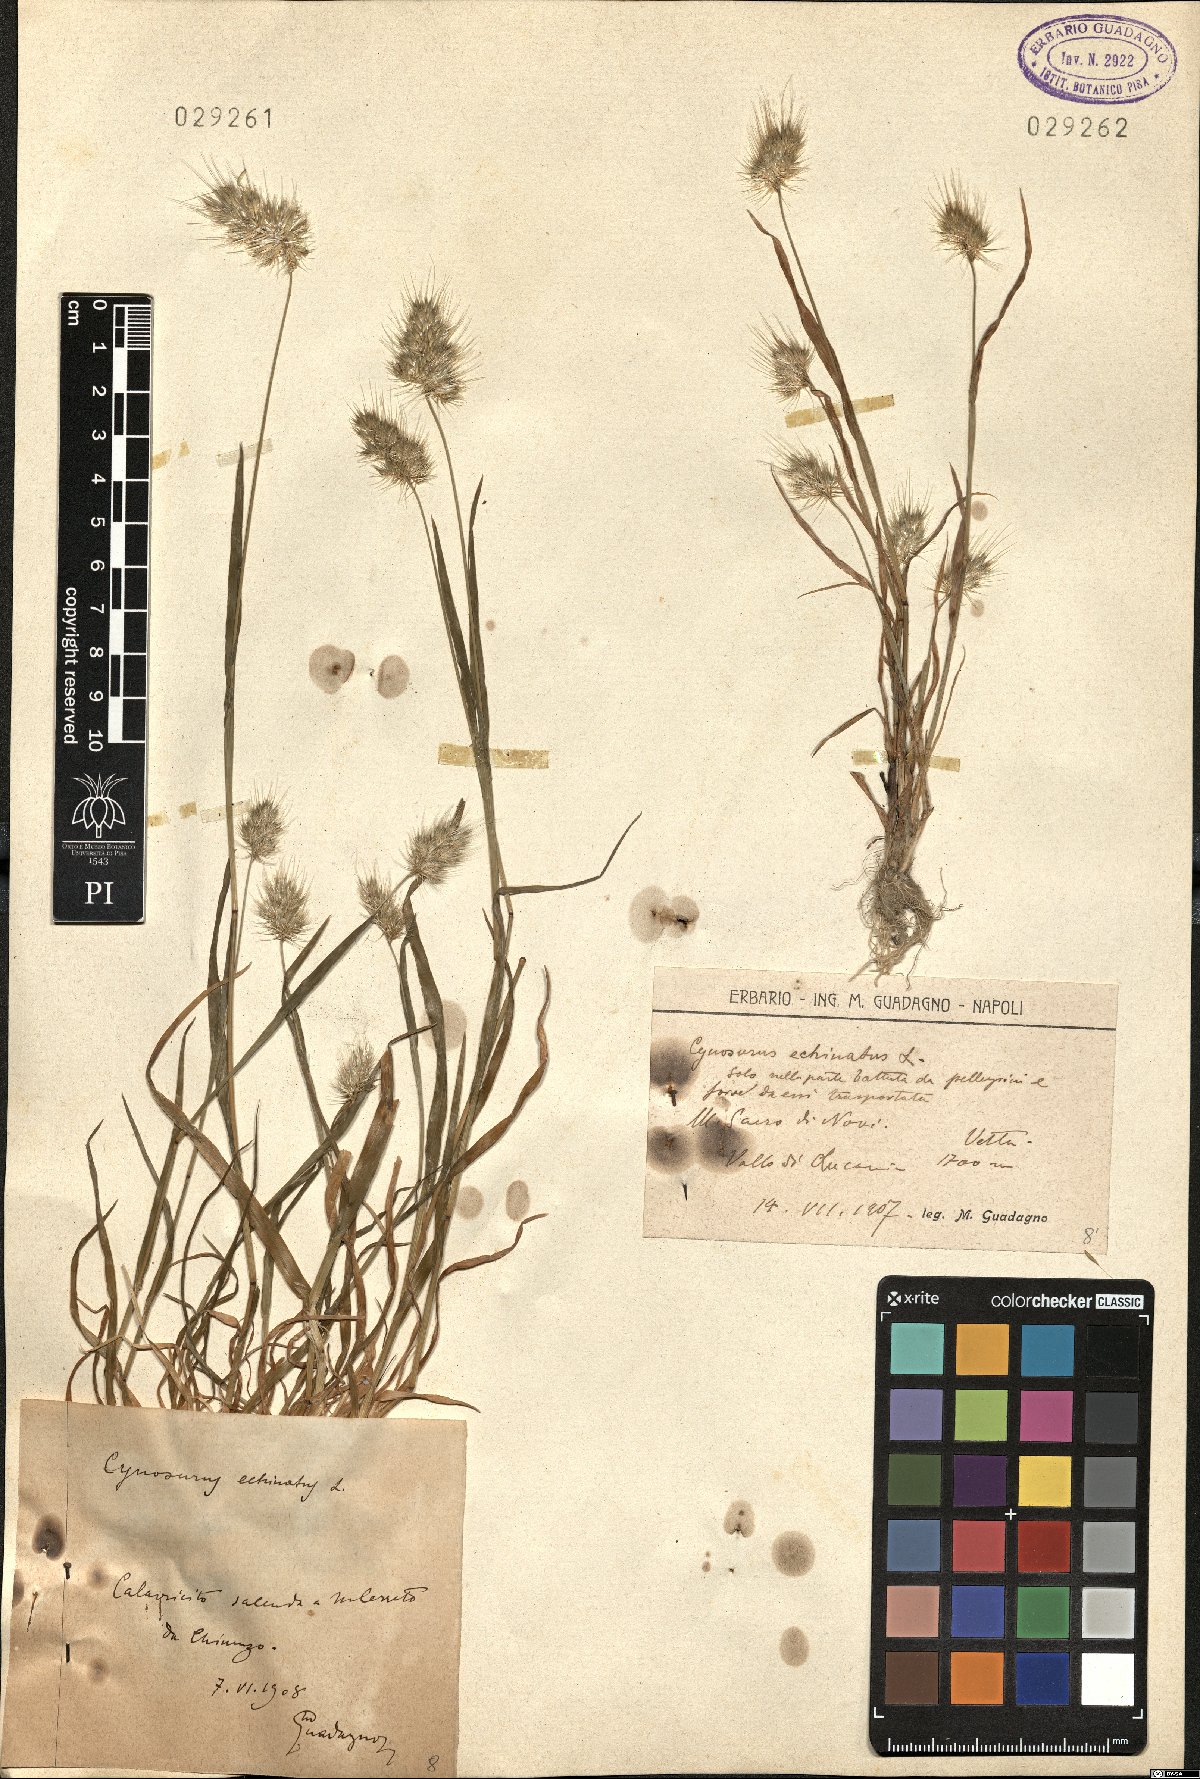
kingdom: Plantae
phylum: Tracheophyta
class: Liliopsida
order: Poales
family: Poaceae
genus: Cynosurus
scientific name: Cynosurus echinatus
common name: Rough dog's-tail
